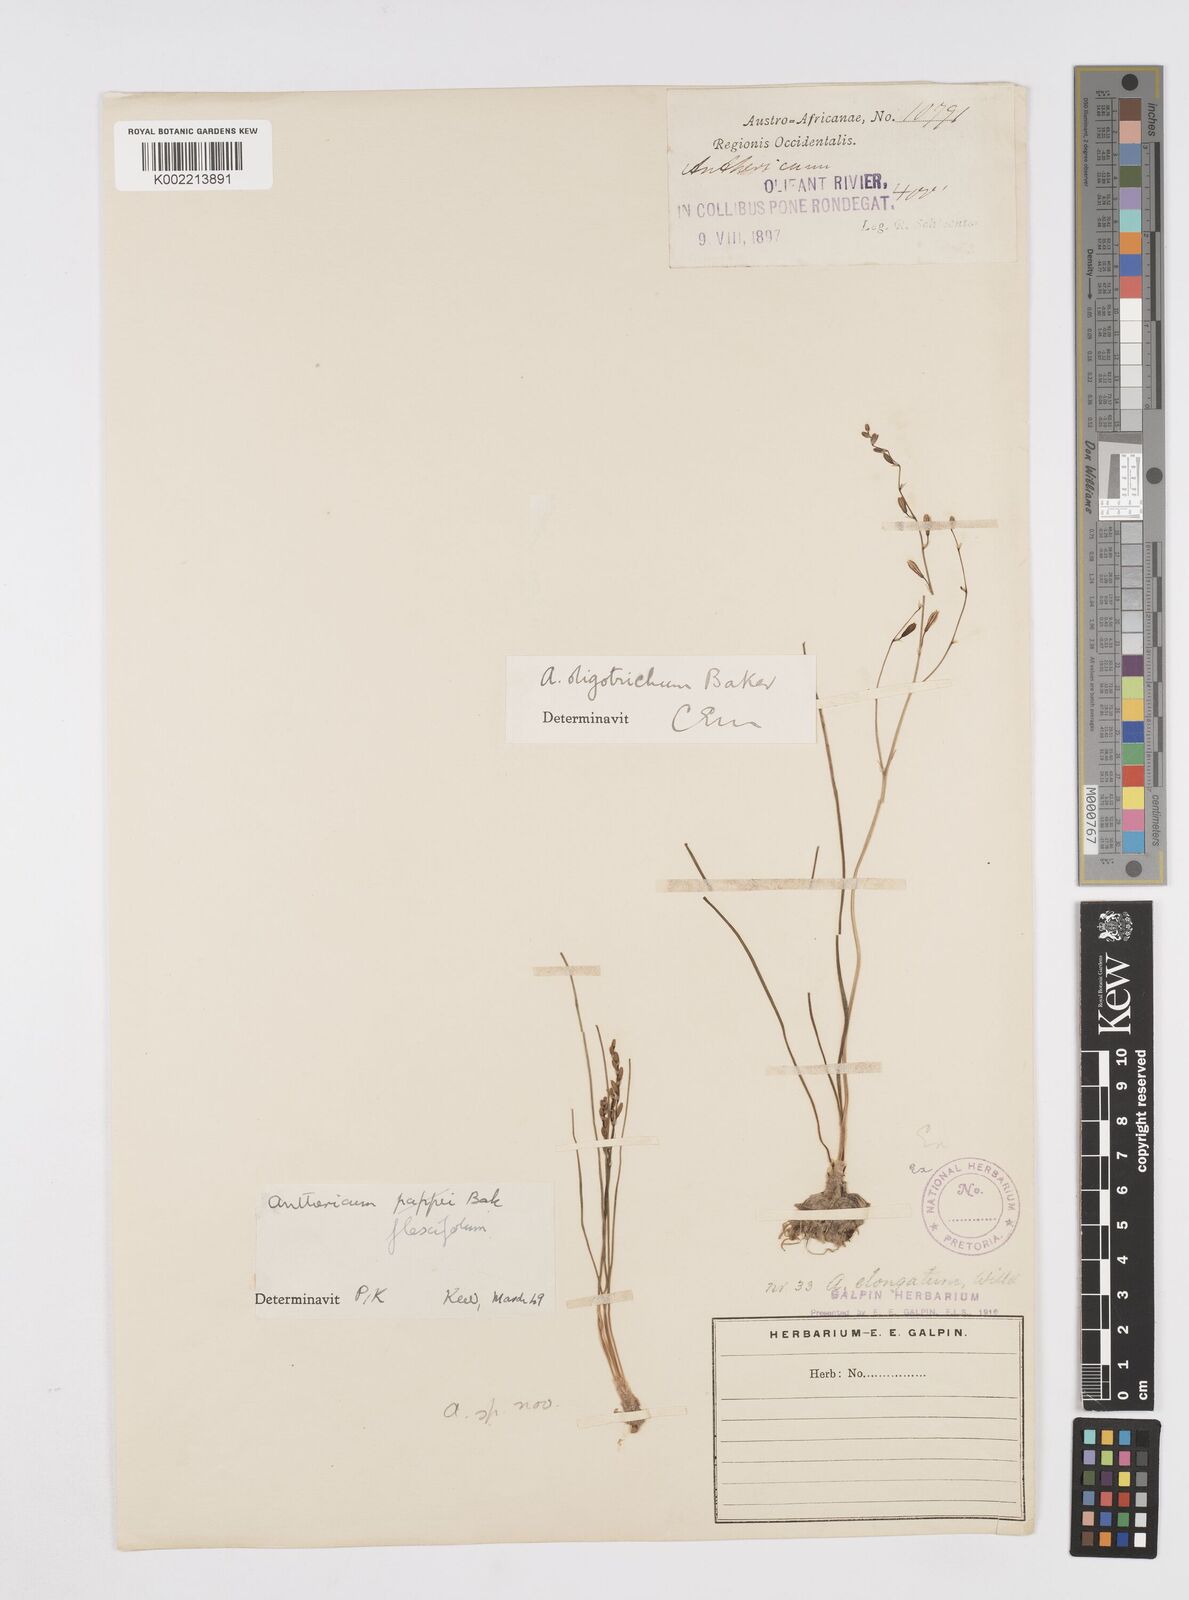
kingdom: Plantae
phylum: Tracheophyta
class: Liliopsida
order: Asparagales
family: Asphodelaceae
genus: Trachyandra
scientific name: Trachyandra flexifolia
